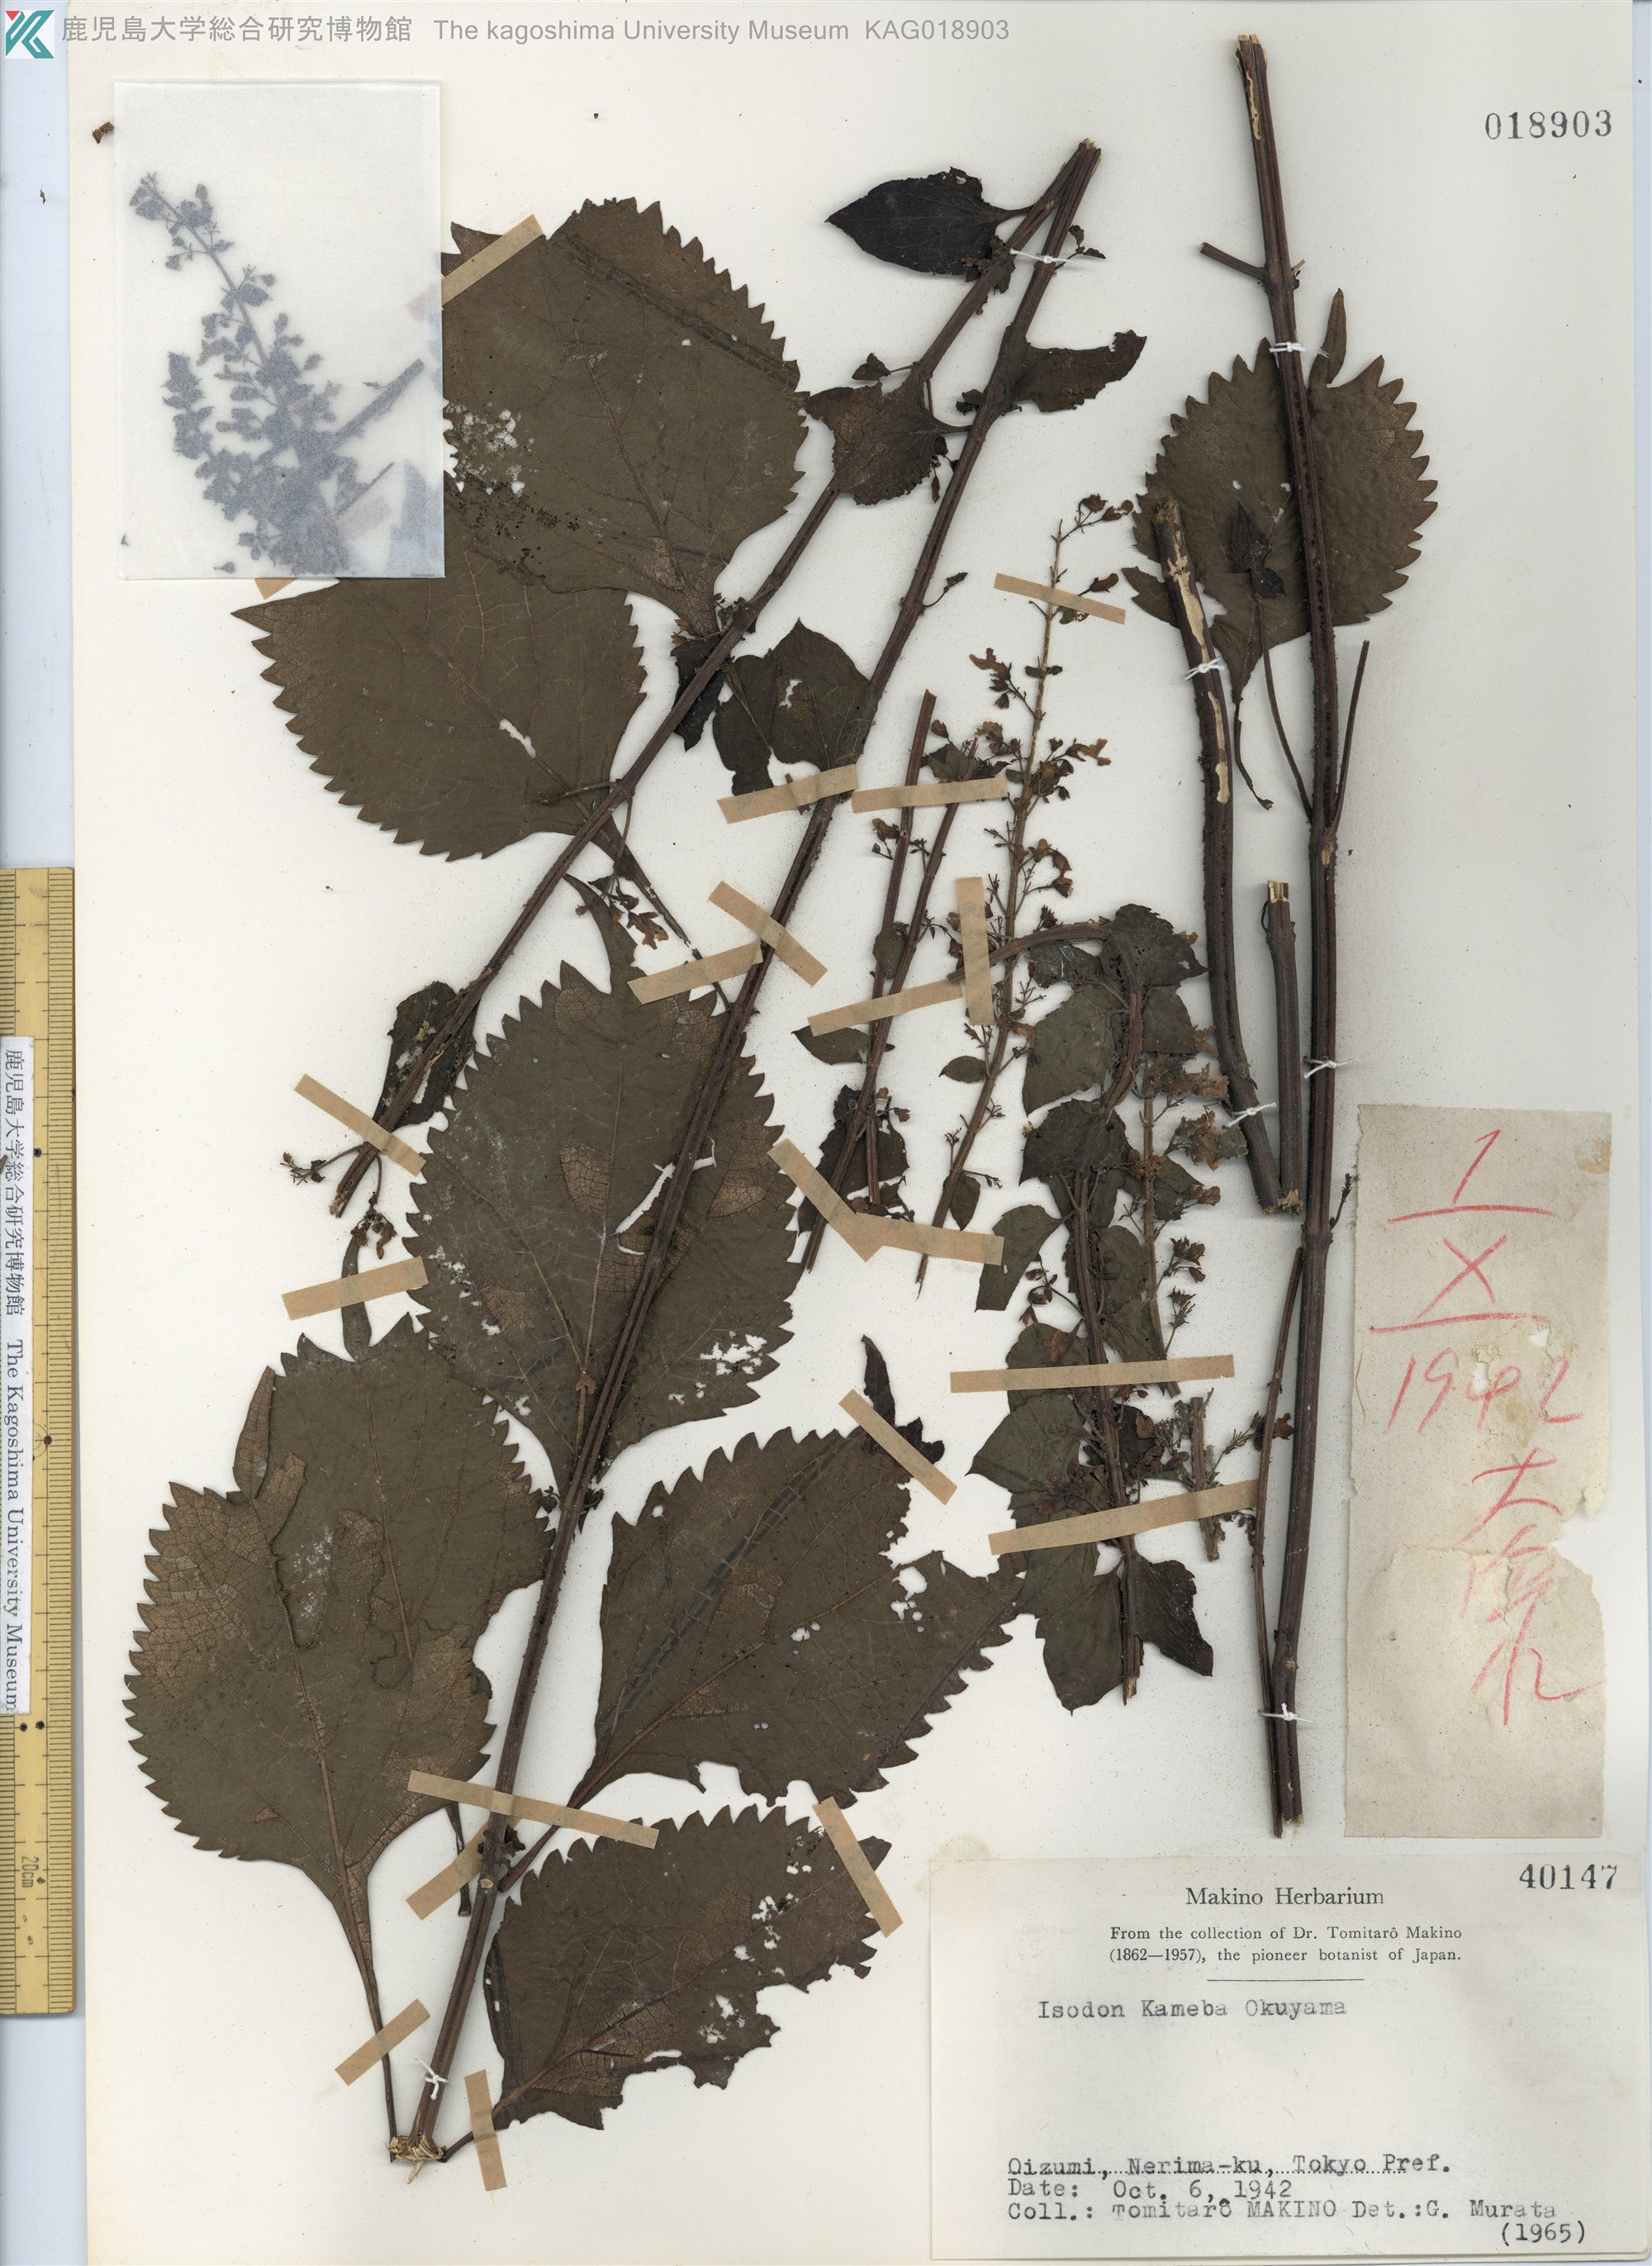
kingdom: Plantae
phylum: Tracheophyta
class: Magnoliopsida
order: Lamiales
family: Lamiaceae
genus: Isodon
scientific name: Isodon umbrosus
